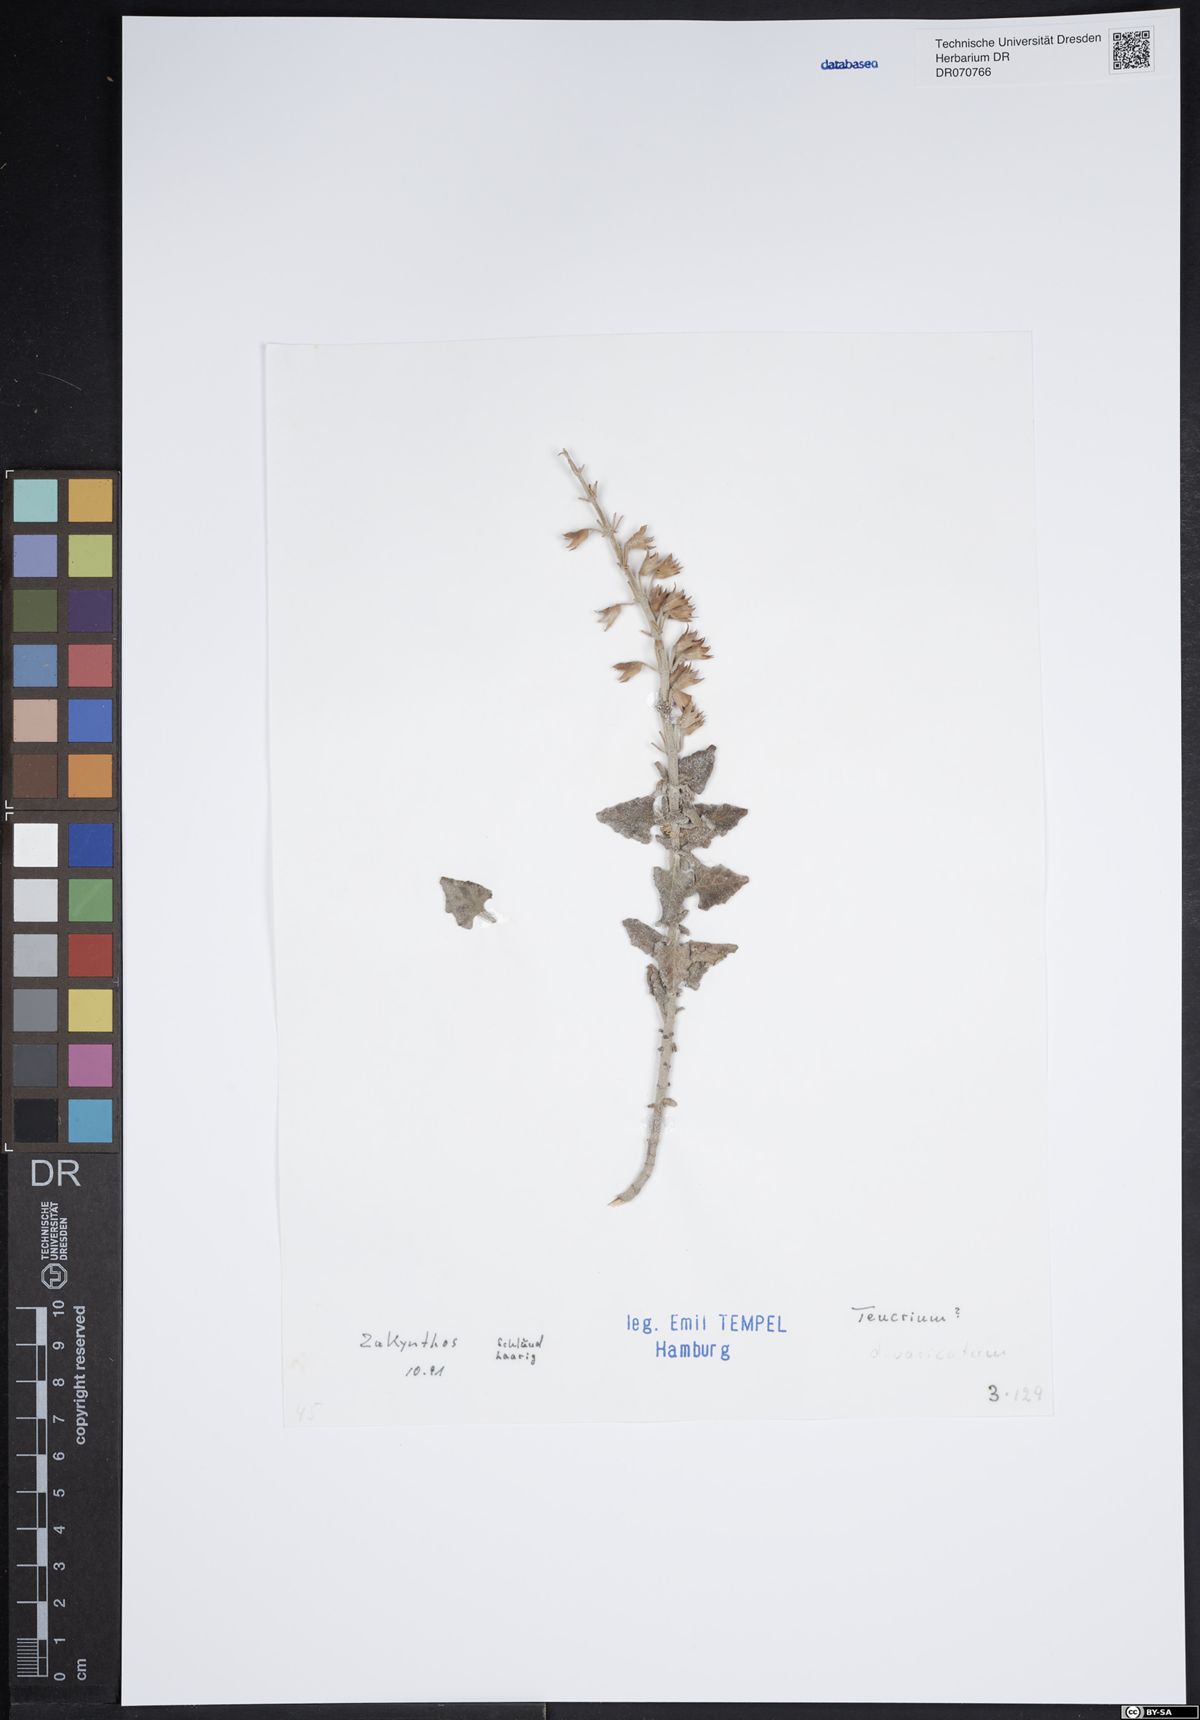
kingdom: Plantae
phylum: Tracheophyta
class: Magnoliopsida
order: Lamiales
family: Lamiaceae
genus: Teucrium
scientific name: Teucrium divaricatum
